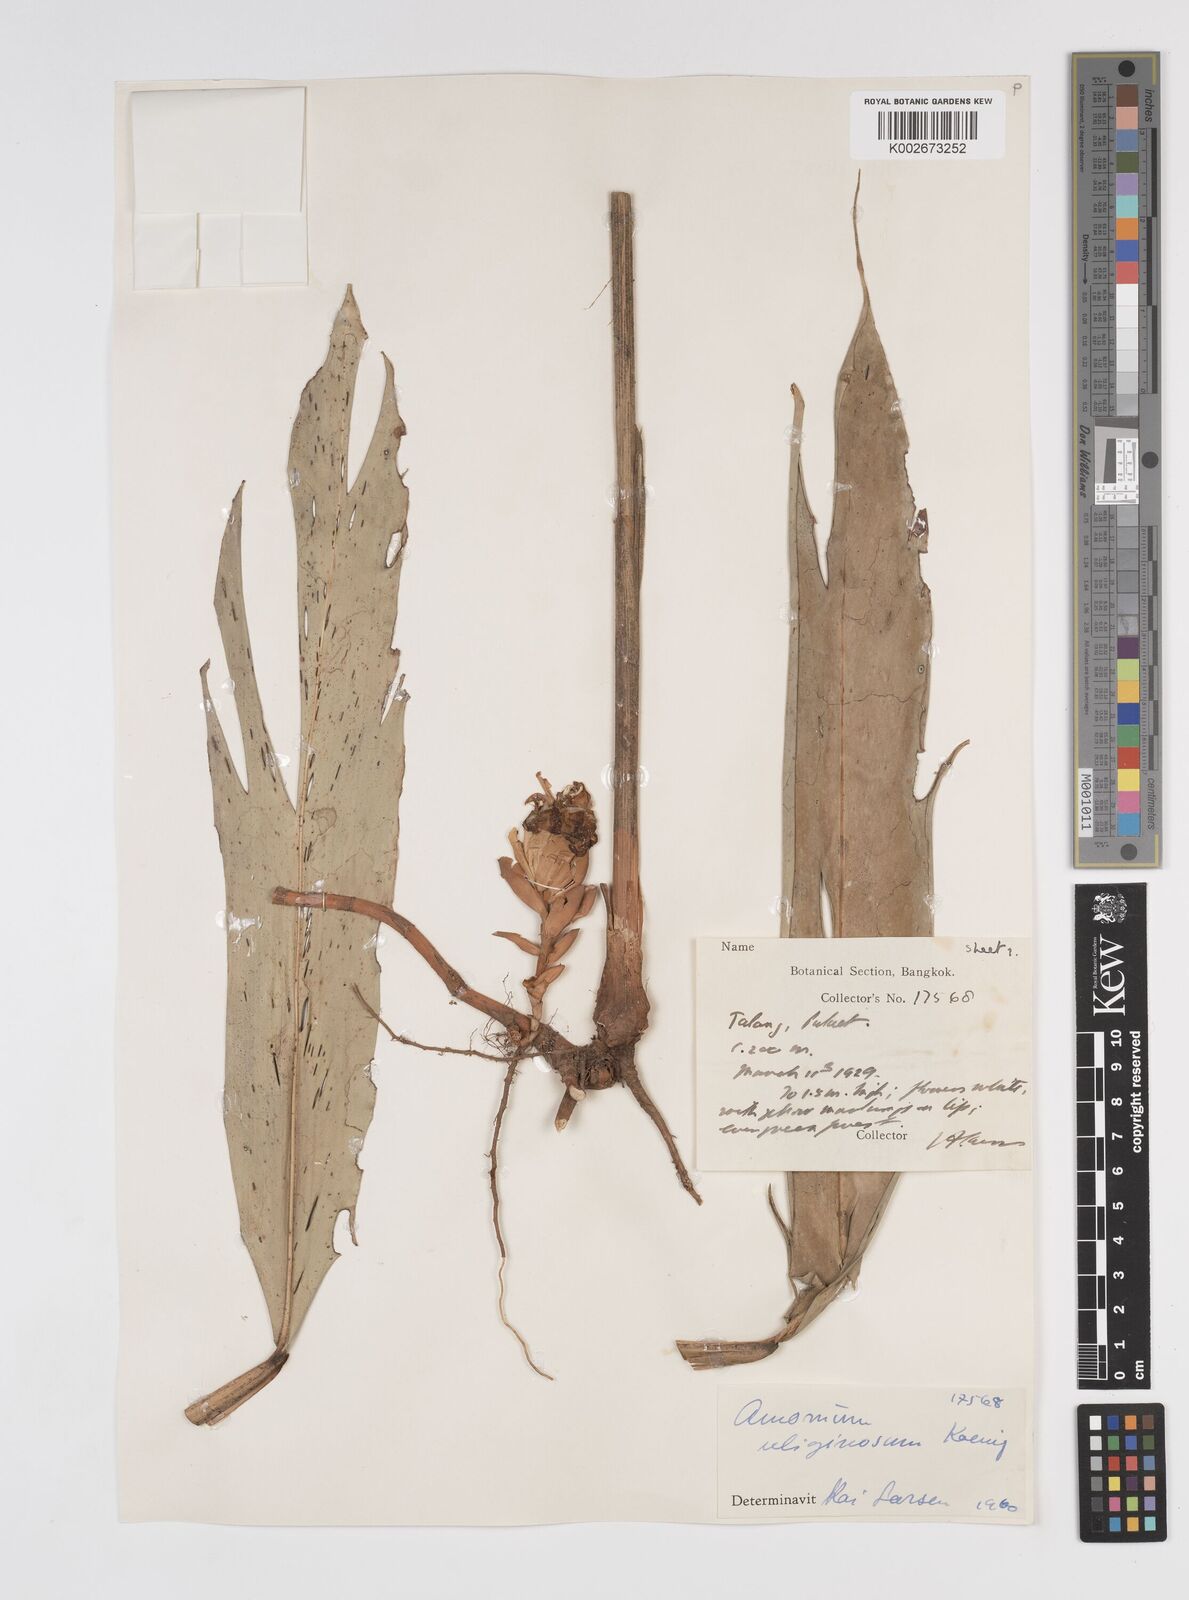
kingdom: Plantae
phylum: Tracheophyta
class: Liliopsida
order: Zingiberales
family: Zingiberaceae
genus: Wurfbainia
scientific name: Wurfbainia uliginosa
